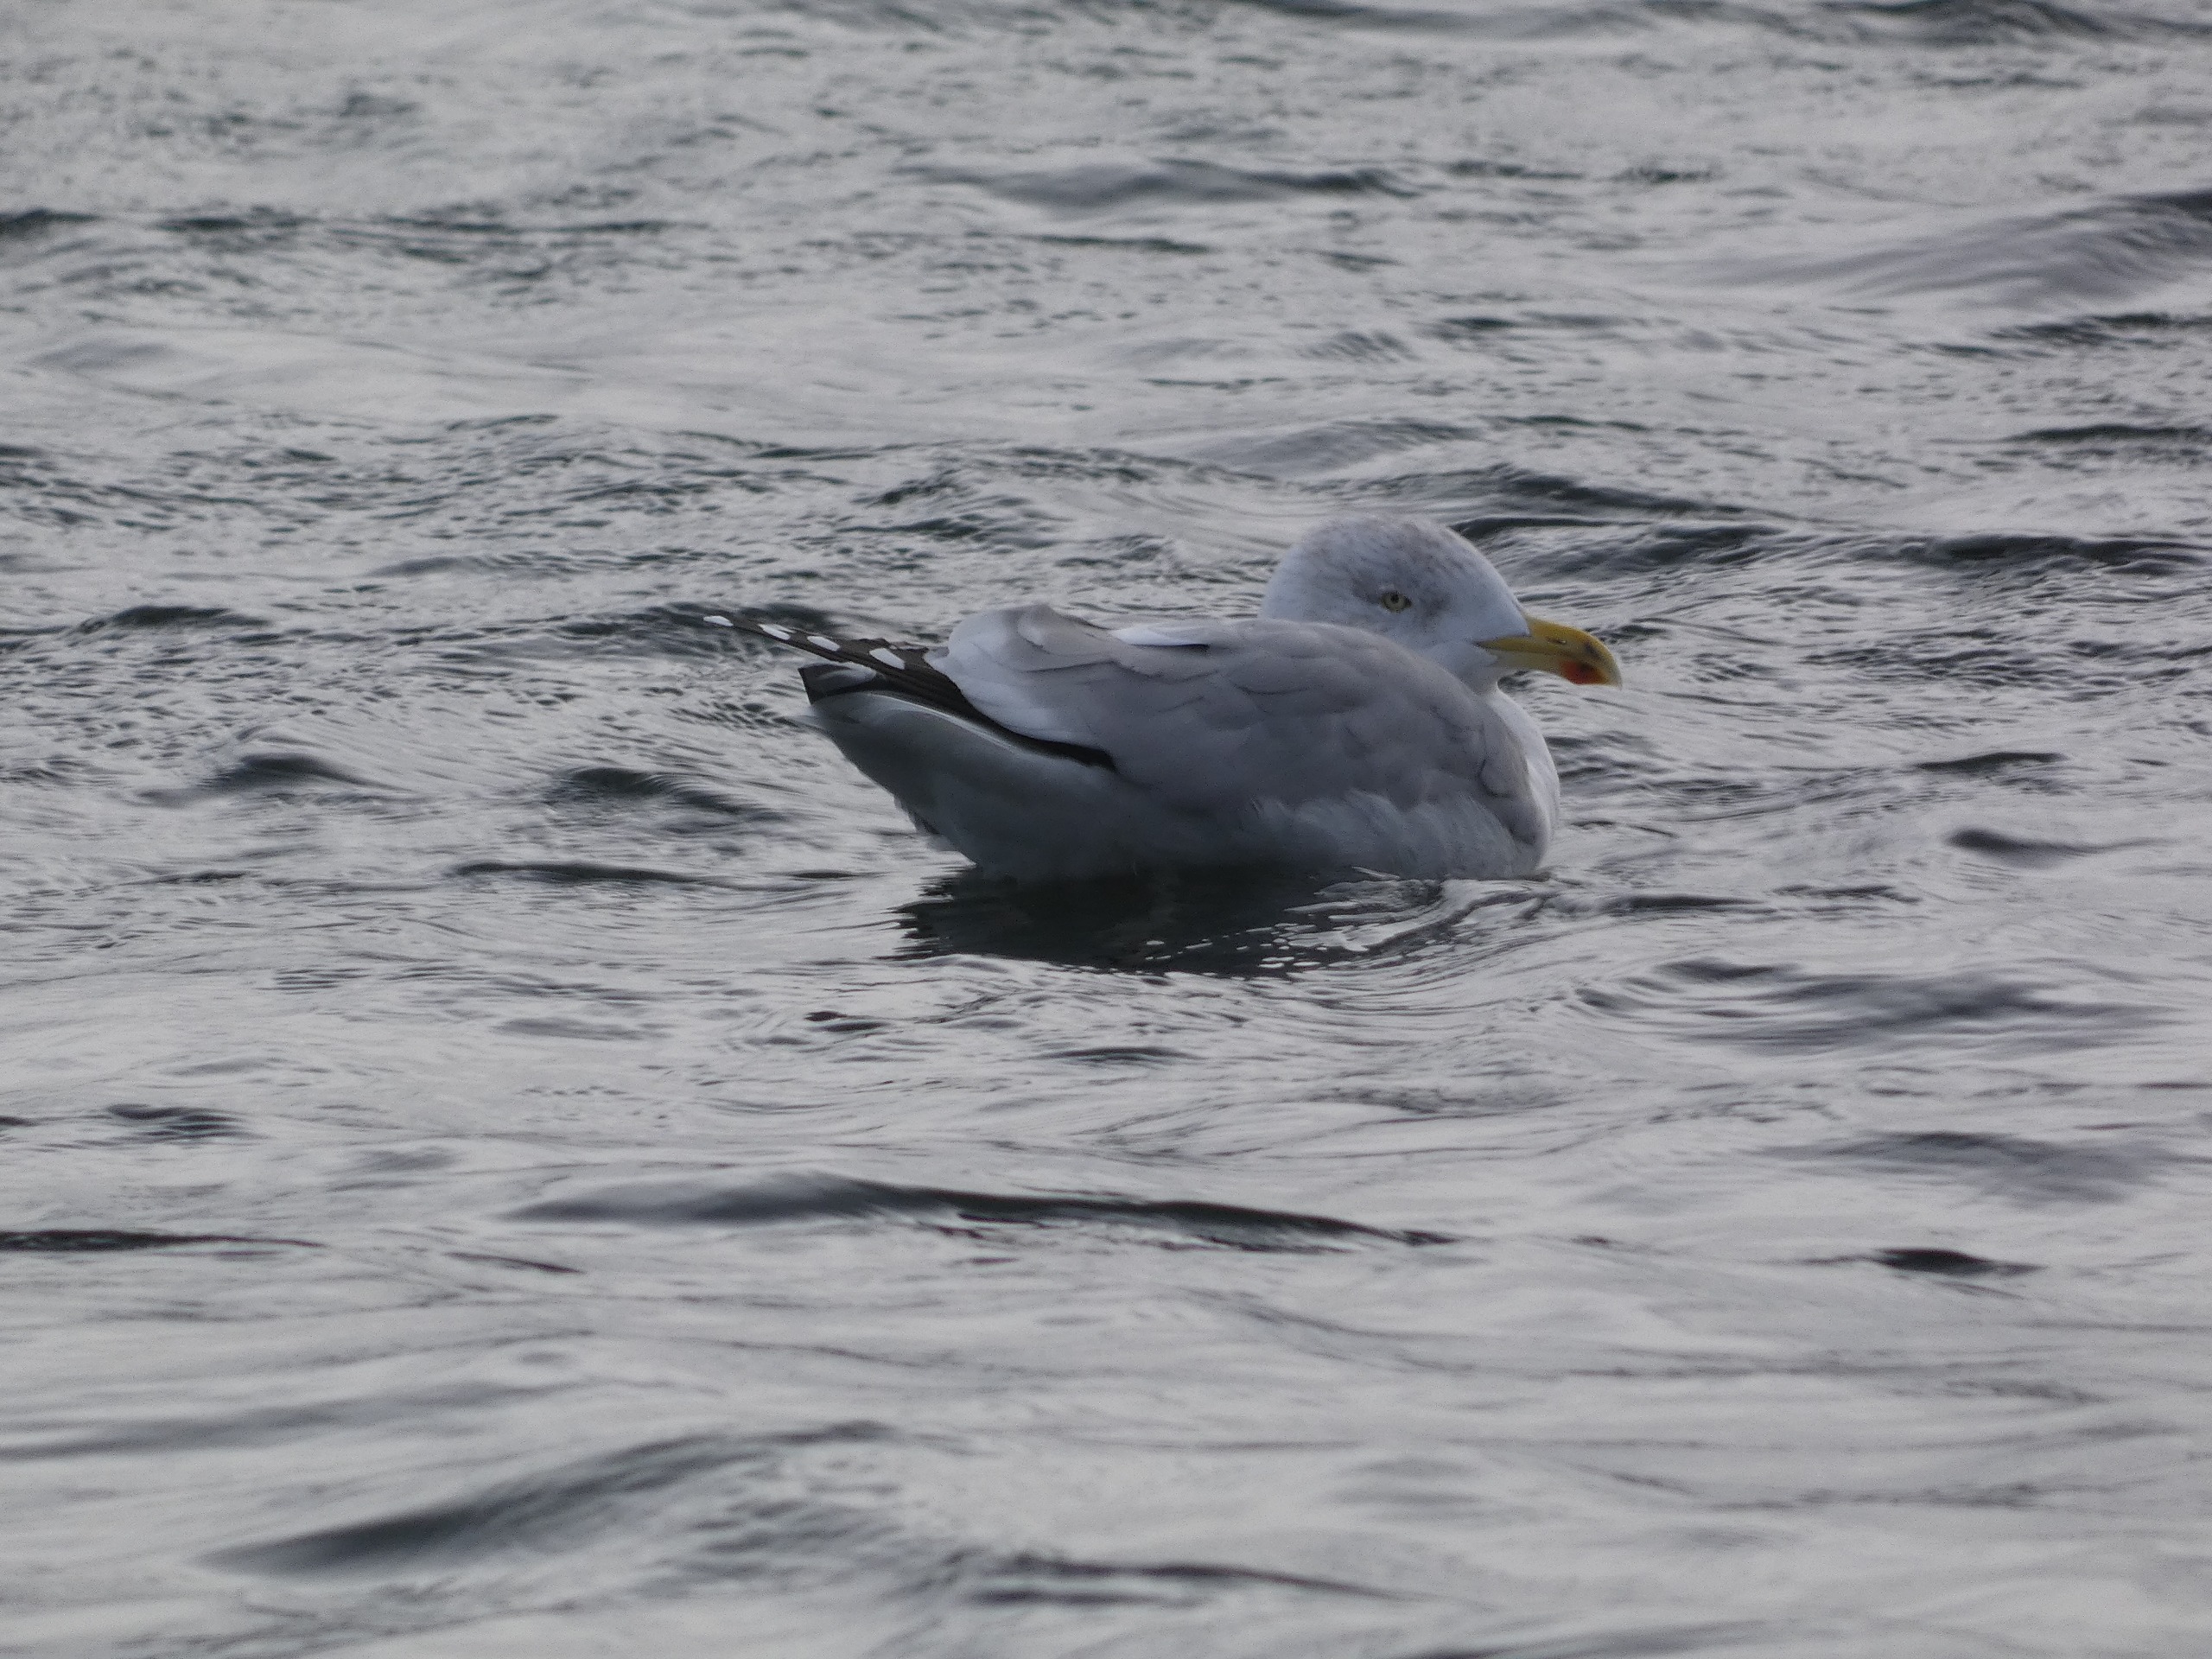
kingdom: Animalia
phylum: Chordata
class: Aves
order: Charadriiformes
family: Laridae
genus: Larus
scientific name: Larus argentatus
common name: Sølvmåge
